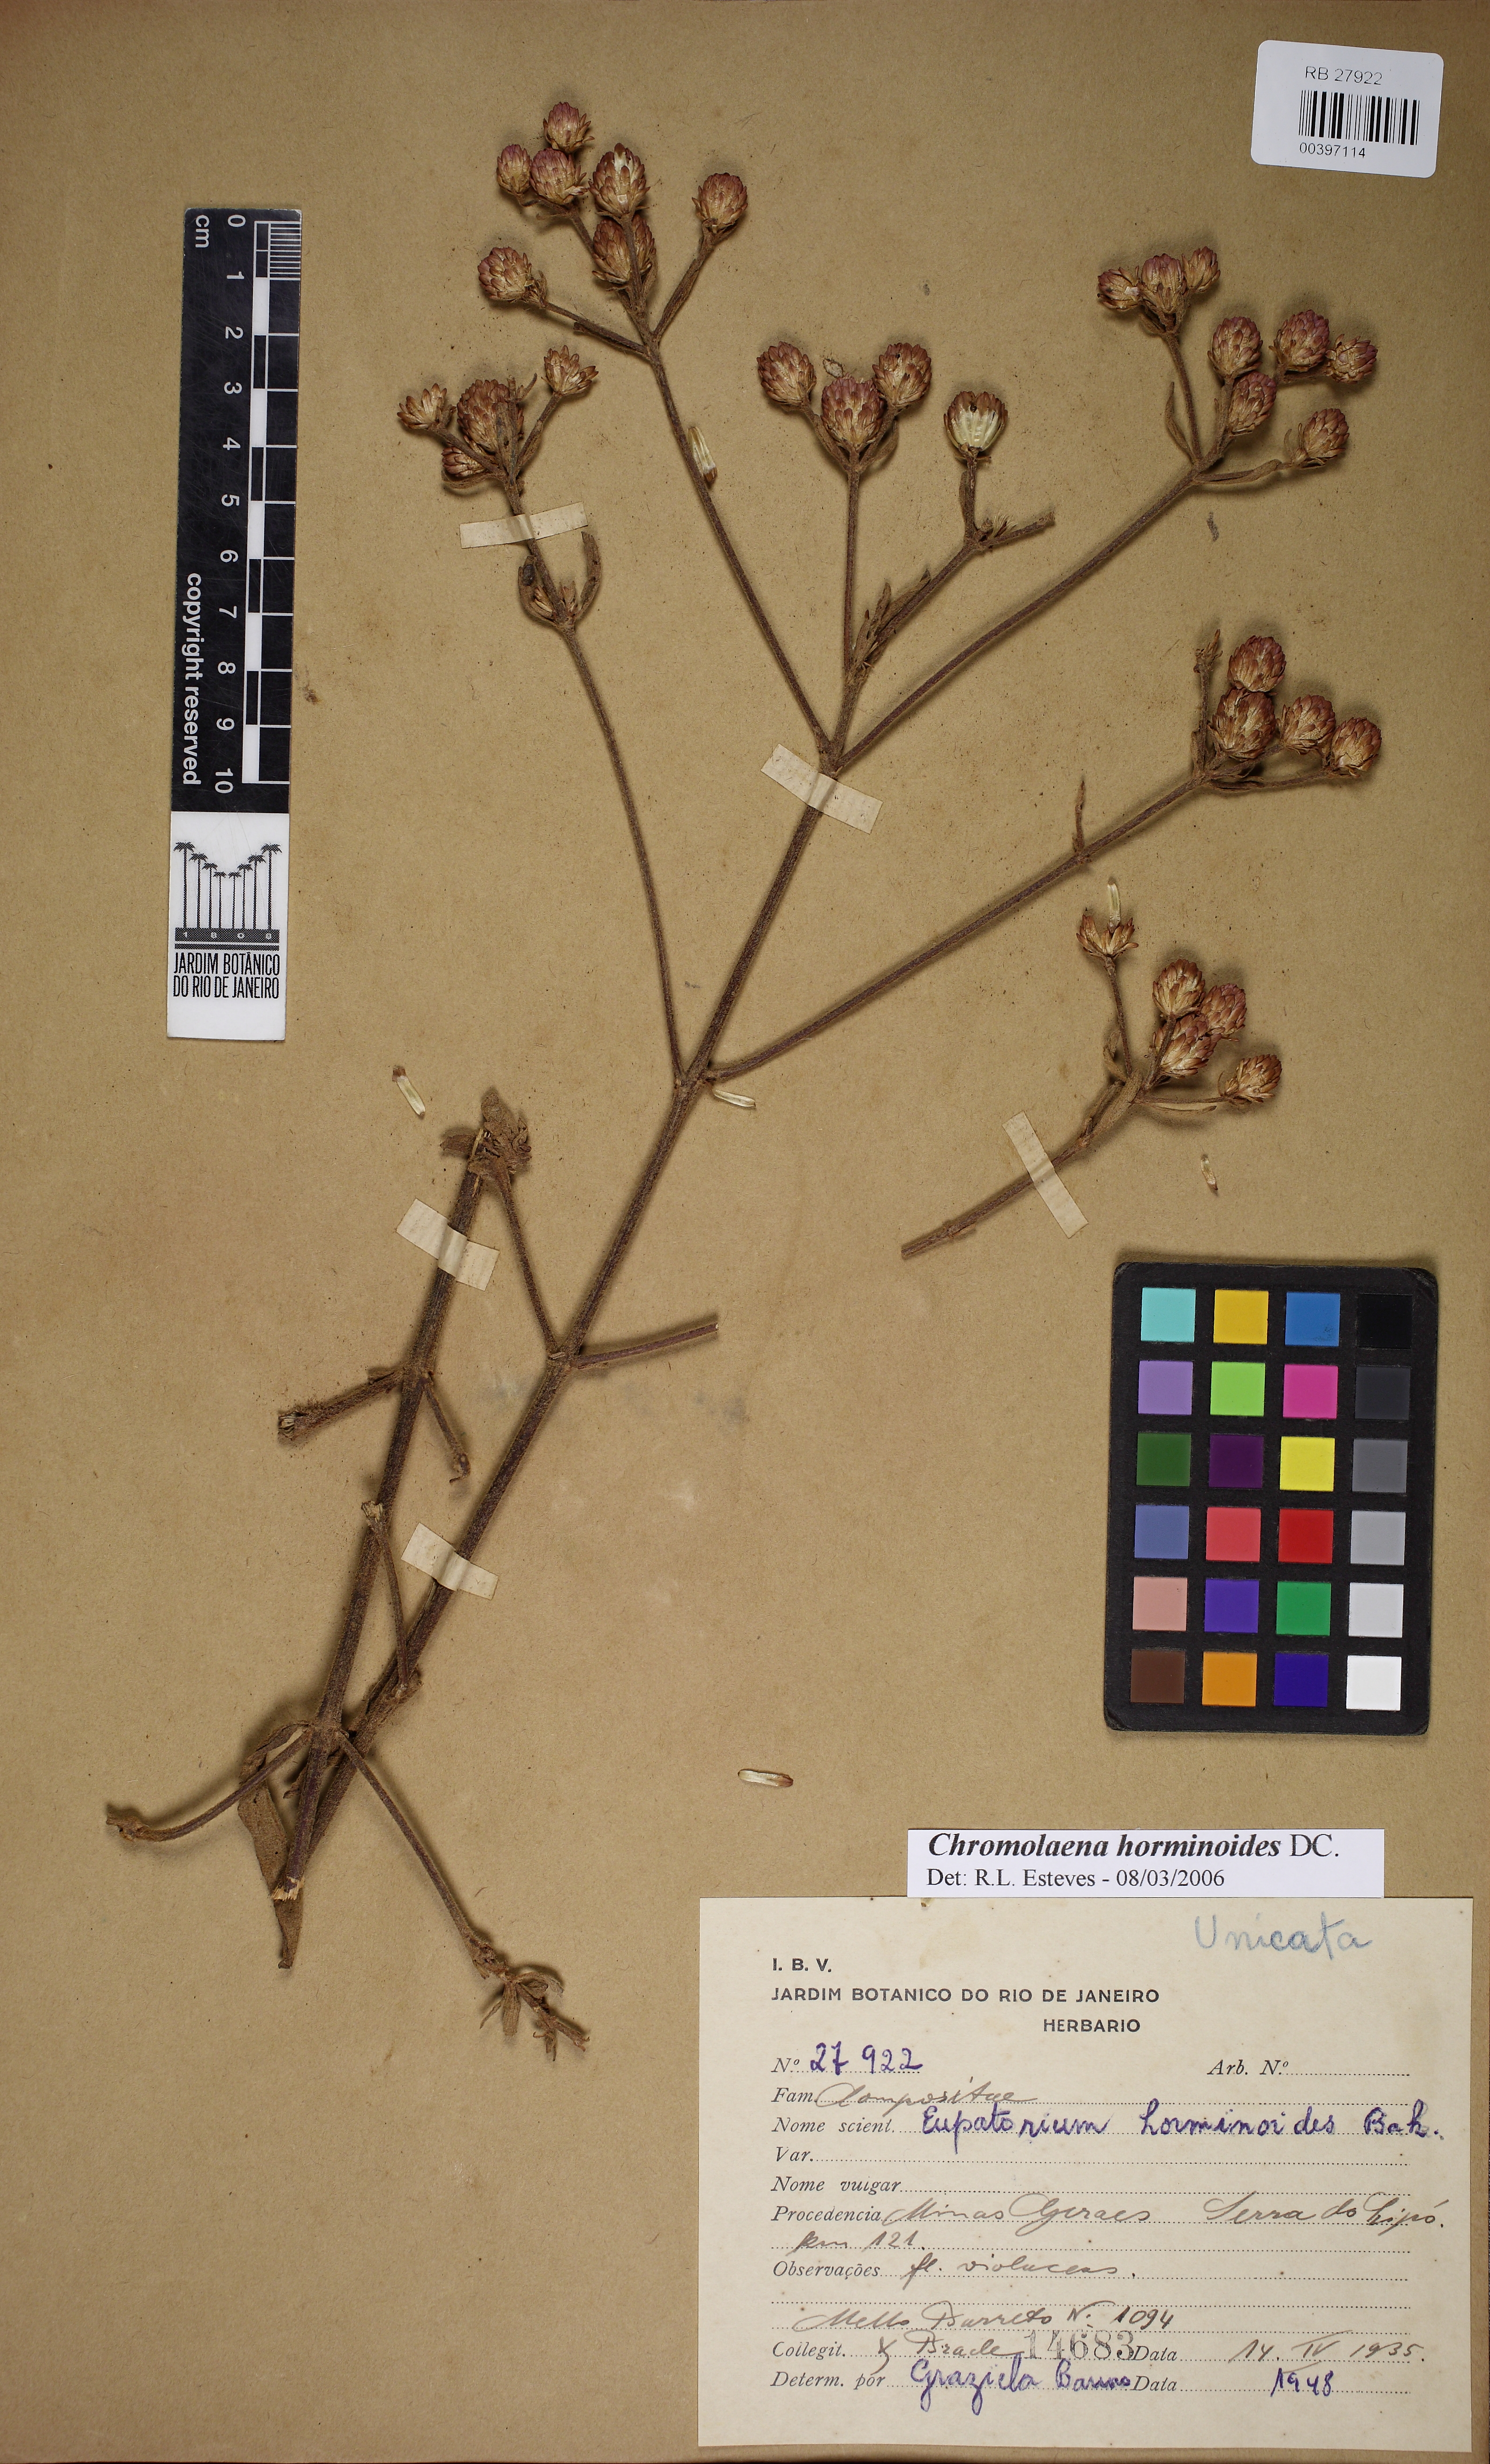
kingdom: Plantae
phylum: Tracheophyta
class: Magnoliopsida
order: Asterales
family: Asteraceae
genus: Chromolaena
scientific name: Chromolaena horminoides
